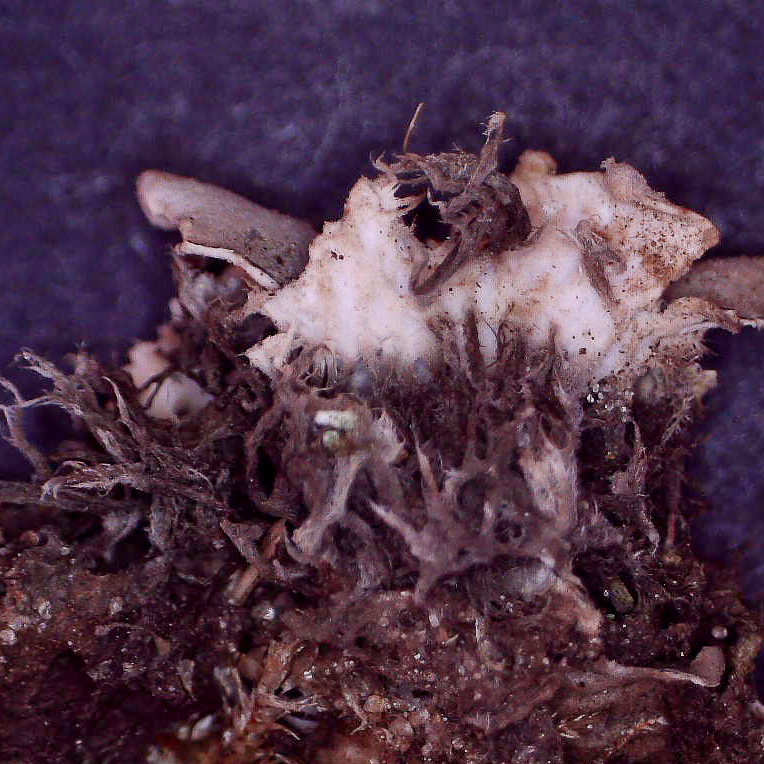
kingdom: Fungi
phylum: Ascomycota
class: Lecanoromycetes
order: Peltigerales
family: Peltigeraceae
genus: Peltigera
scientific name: Peltigera didactyla
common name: liden skjoldlav
